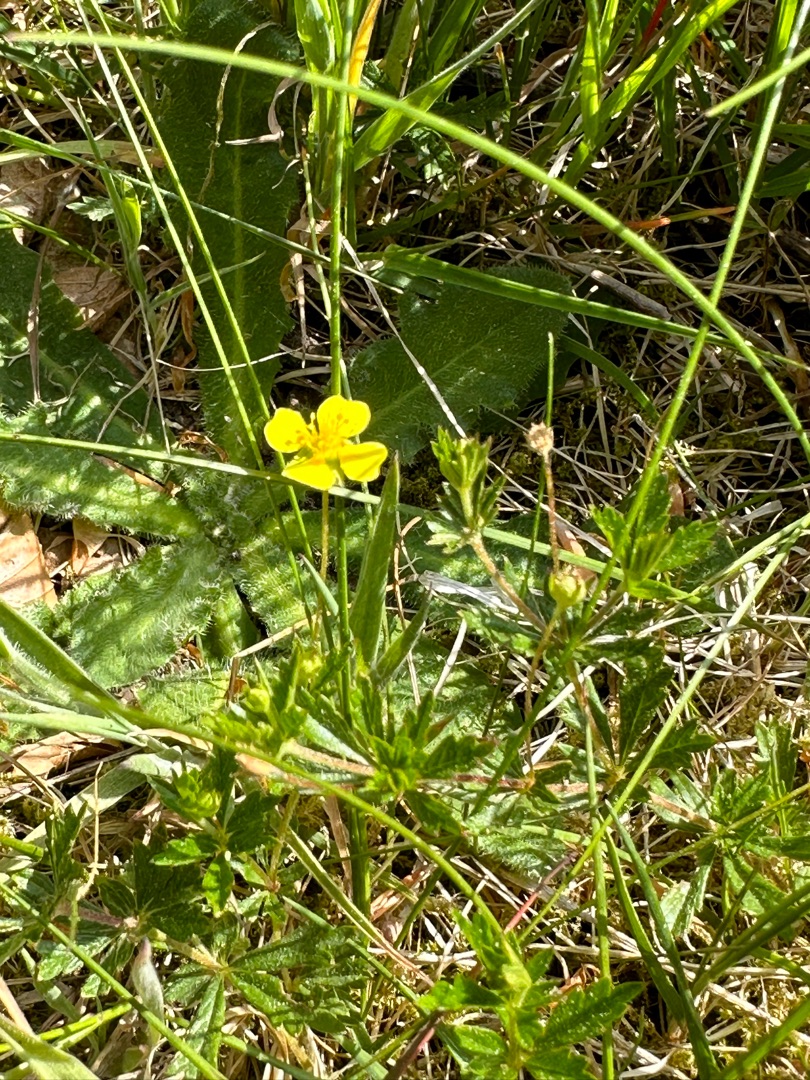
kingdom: Plantae
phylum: Tracheophyta
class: Magnoliopsida
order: Rosales
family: Rosaceae
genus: Potentilla
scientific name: Potentilla erecta
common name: Tormentil
